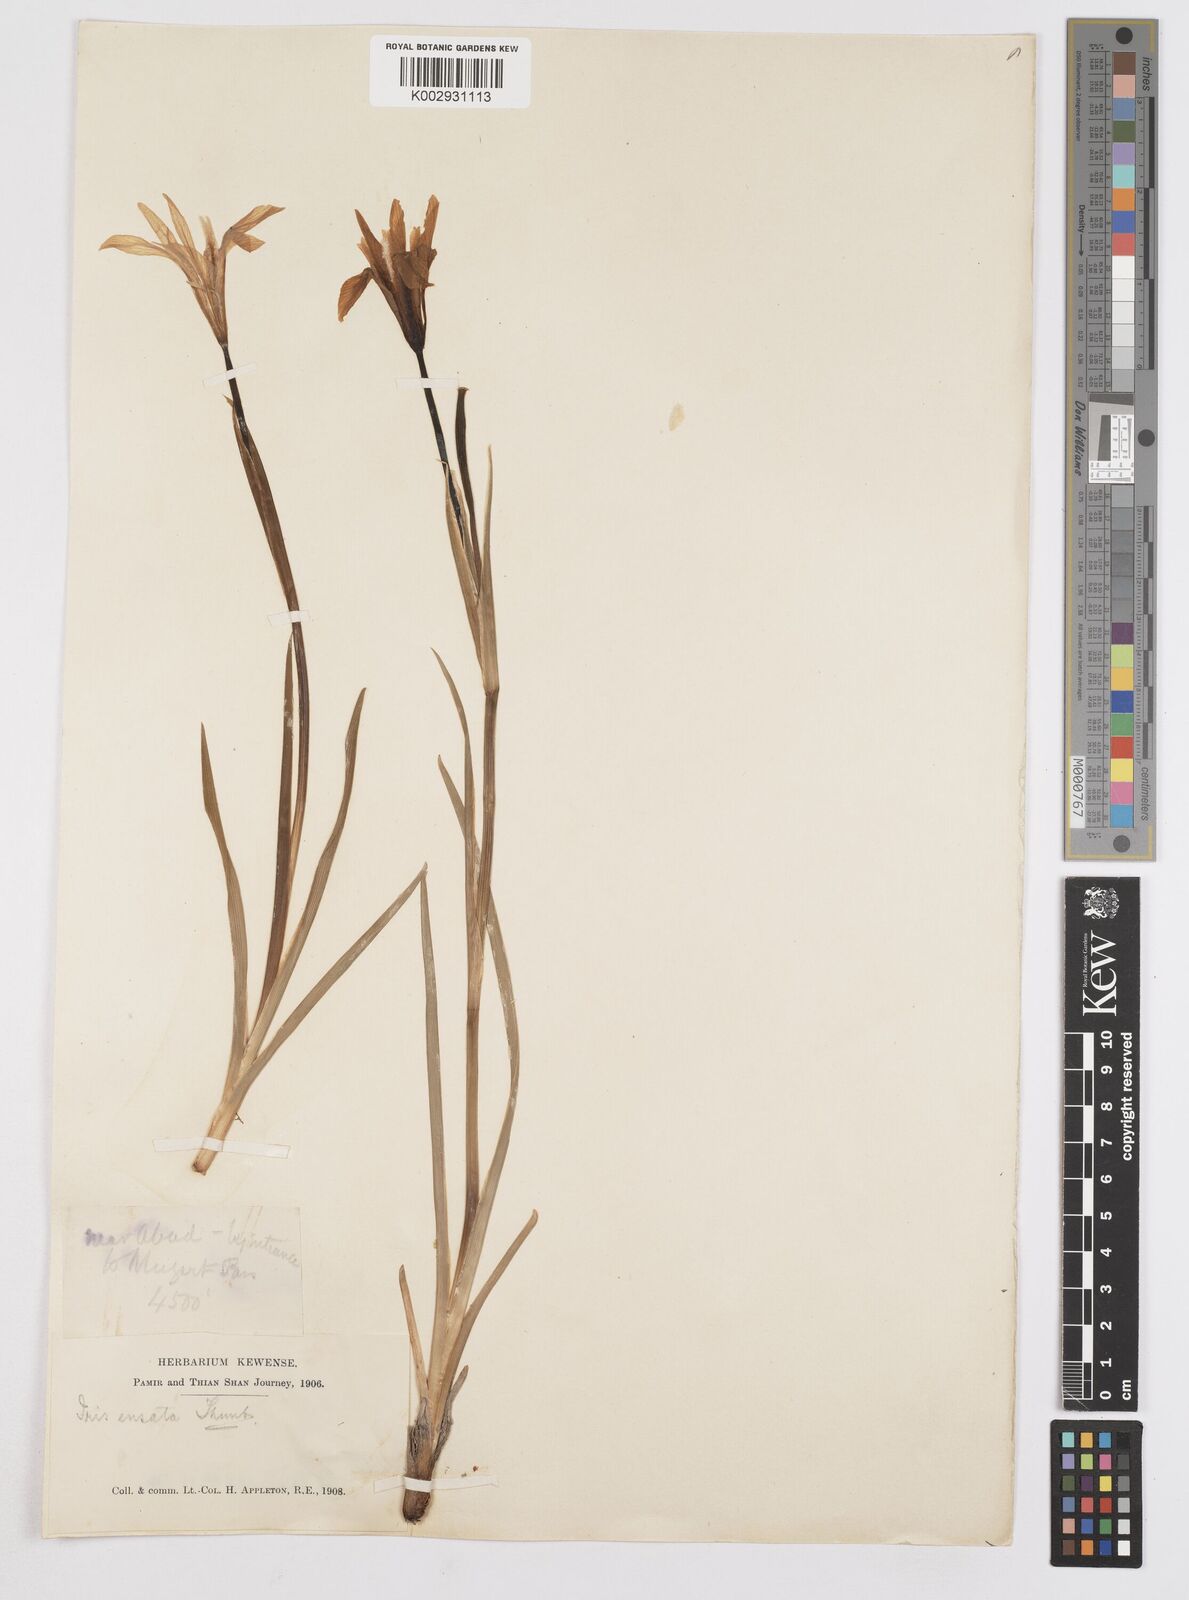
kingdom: Plantae
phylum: Tracheophyta
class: Liliopsida
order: Asparagales
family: Iridaceae
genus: Iris
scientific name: Iris ensata
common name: Beaked iris
